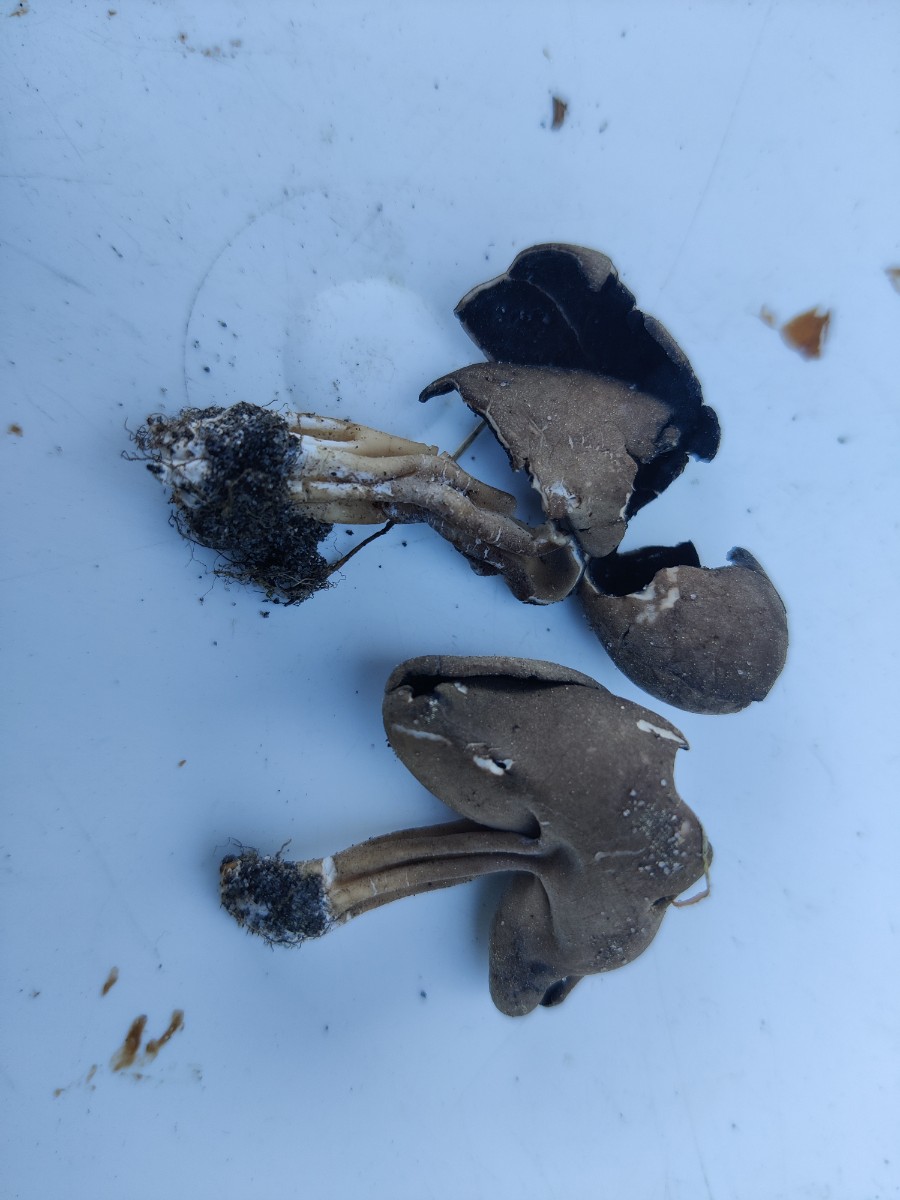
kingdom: Fungi
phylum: Ascomycota
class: Pezizomycetes
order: Pezizales
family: Helvellaceae
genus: Helvella
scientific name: Helvella solitaria
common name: Quélets foldhat
